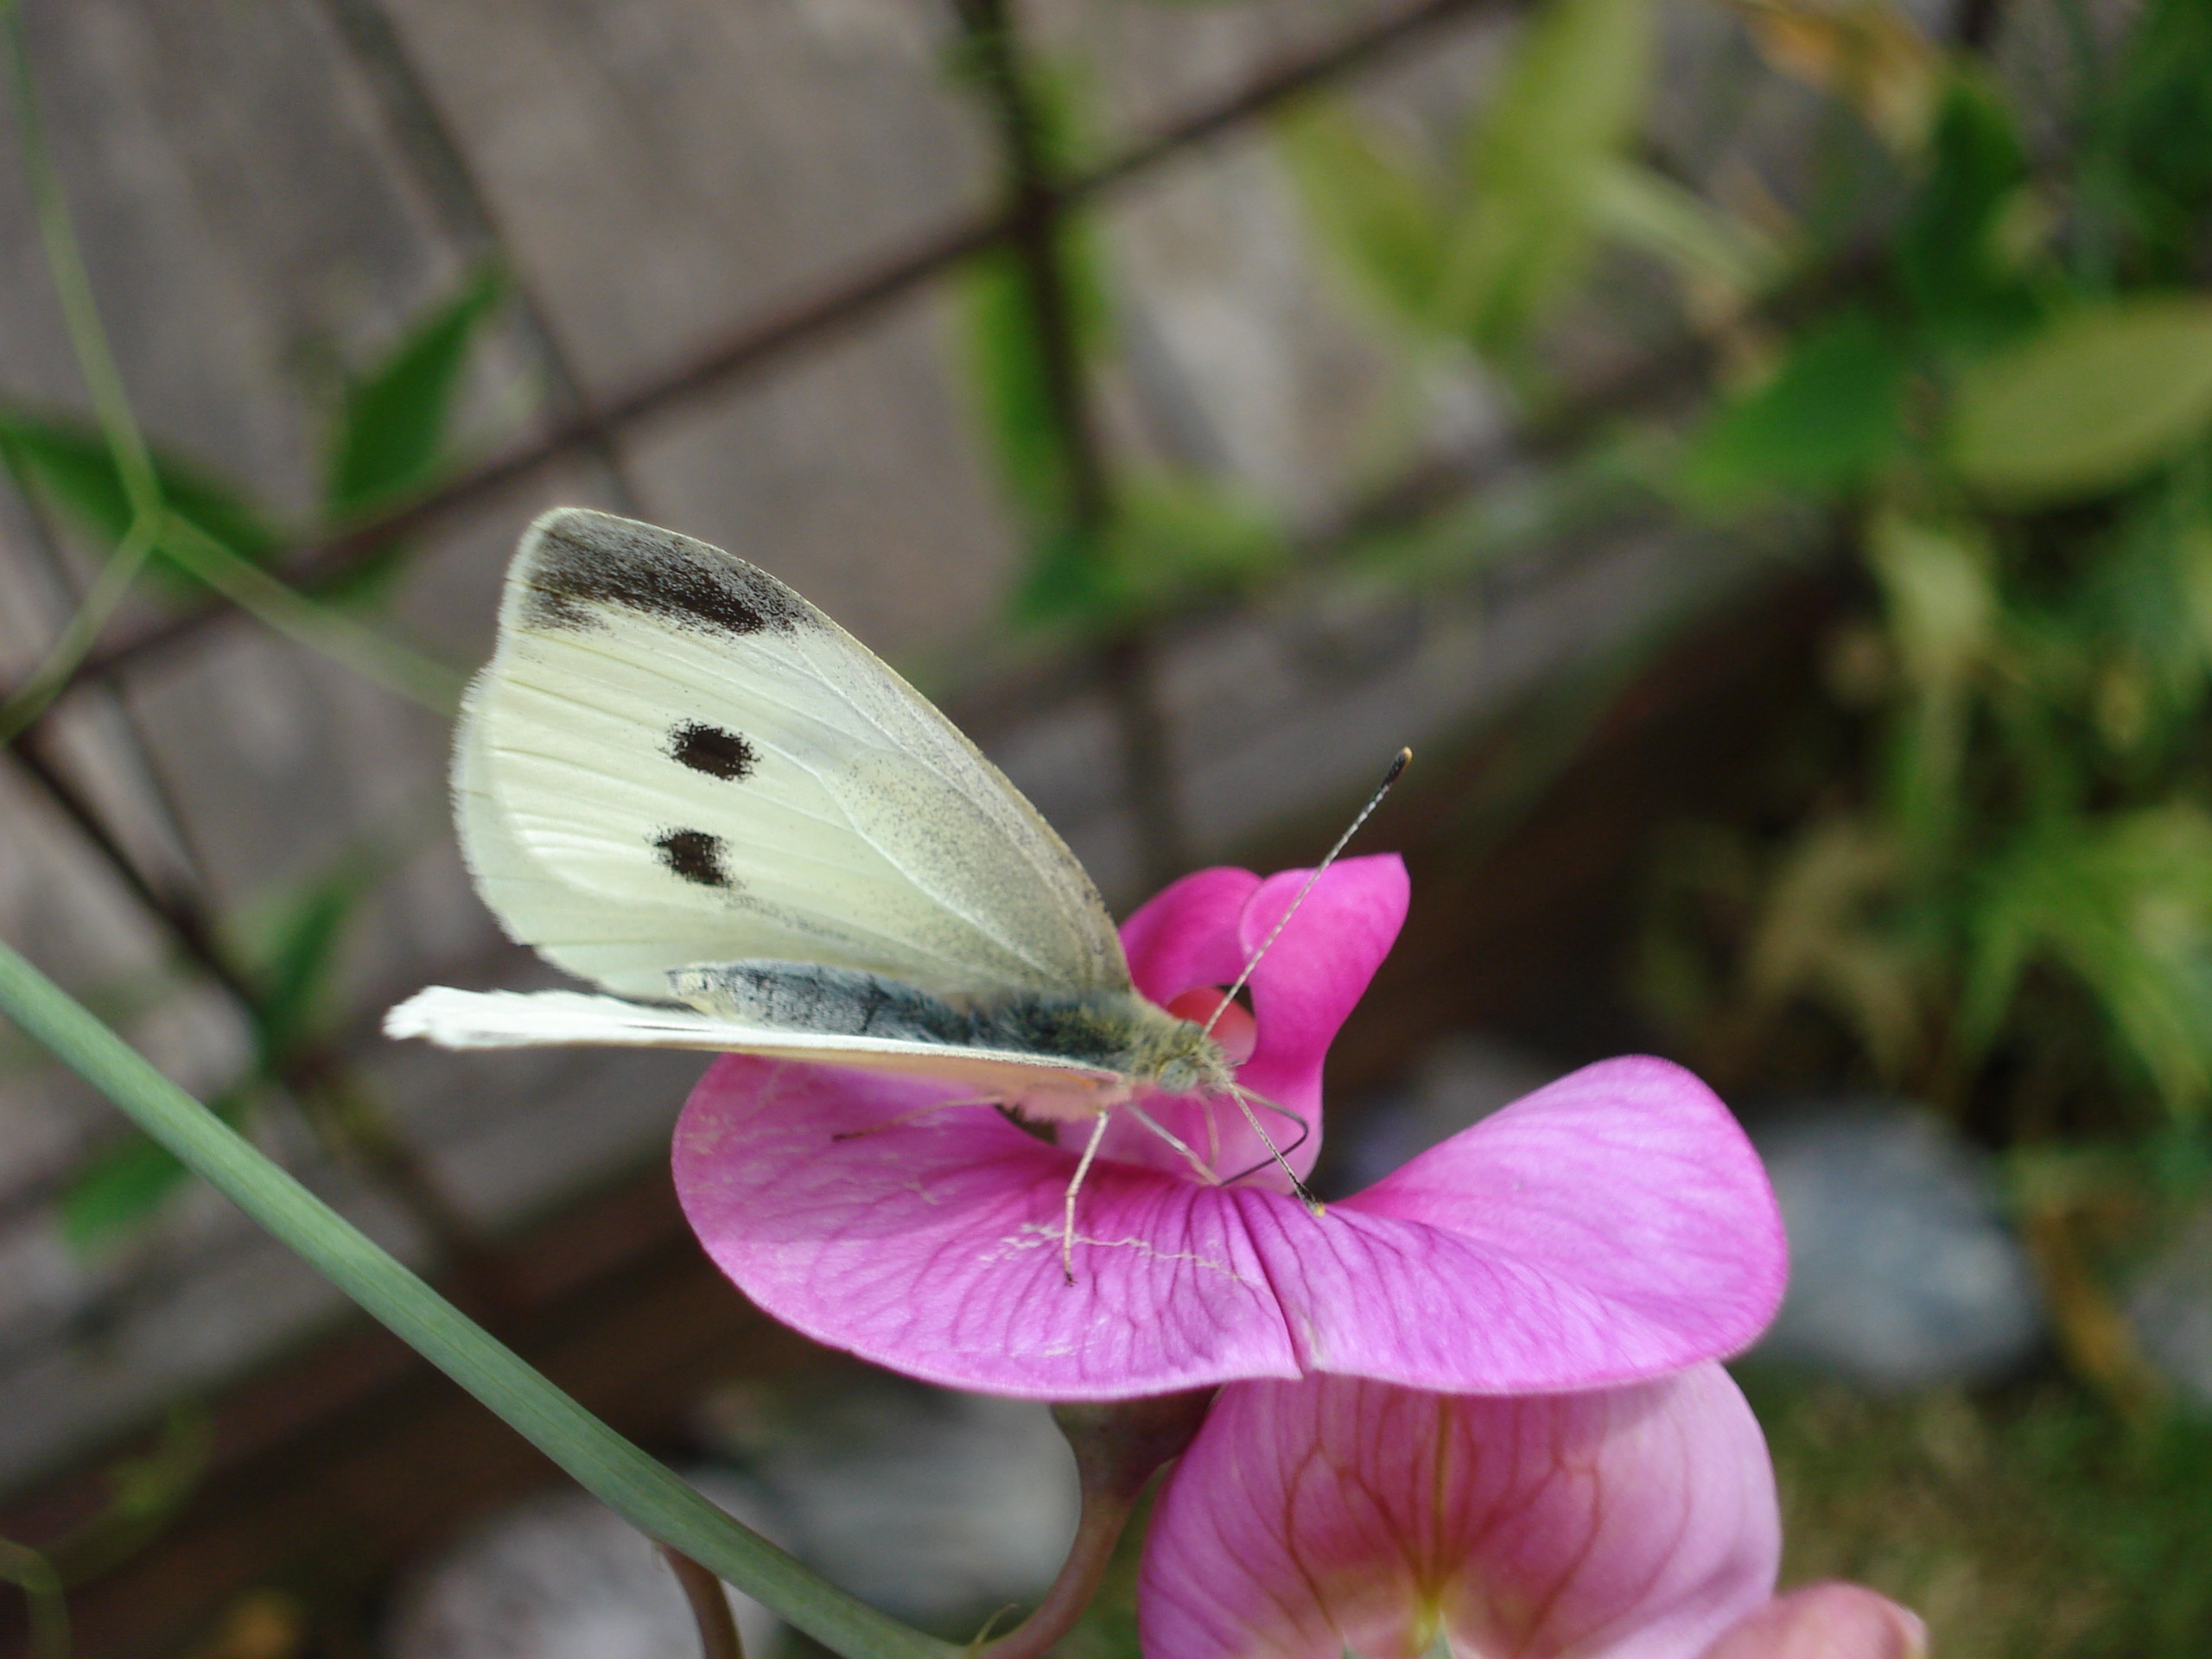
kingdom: Animalia
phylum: Arthropoda
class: Insecta
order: Lepidoptera
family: Pieridae
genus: Pieris
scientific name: Pieris rapae
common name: Lille kålsommerfugl
